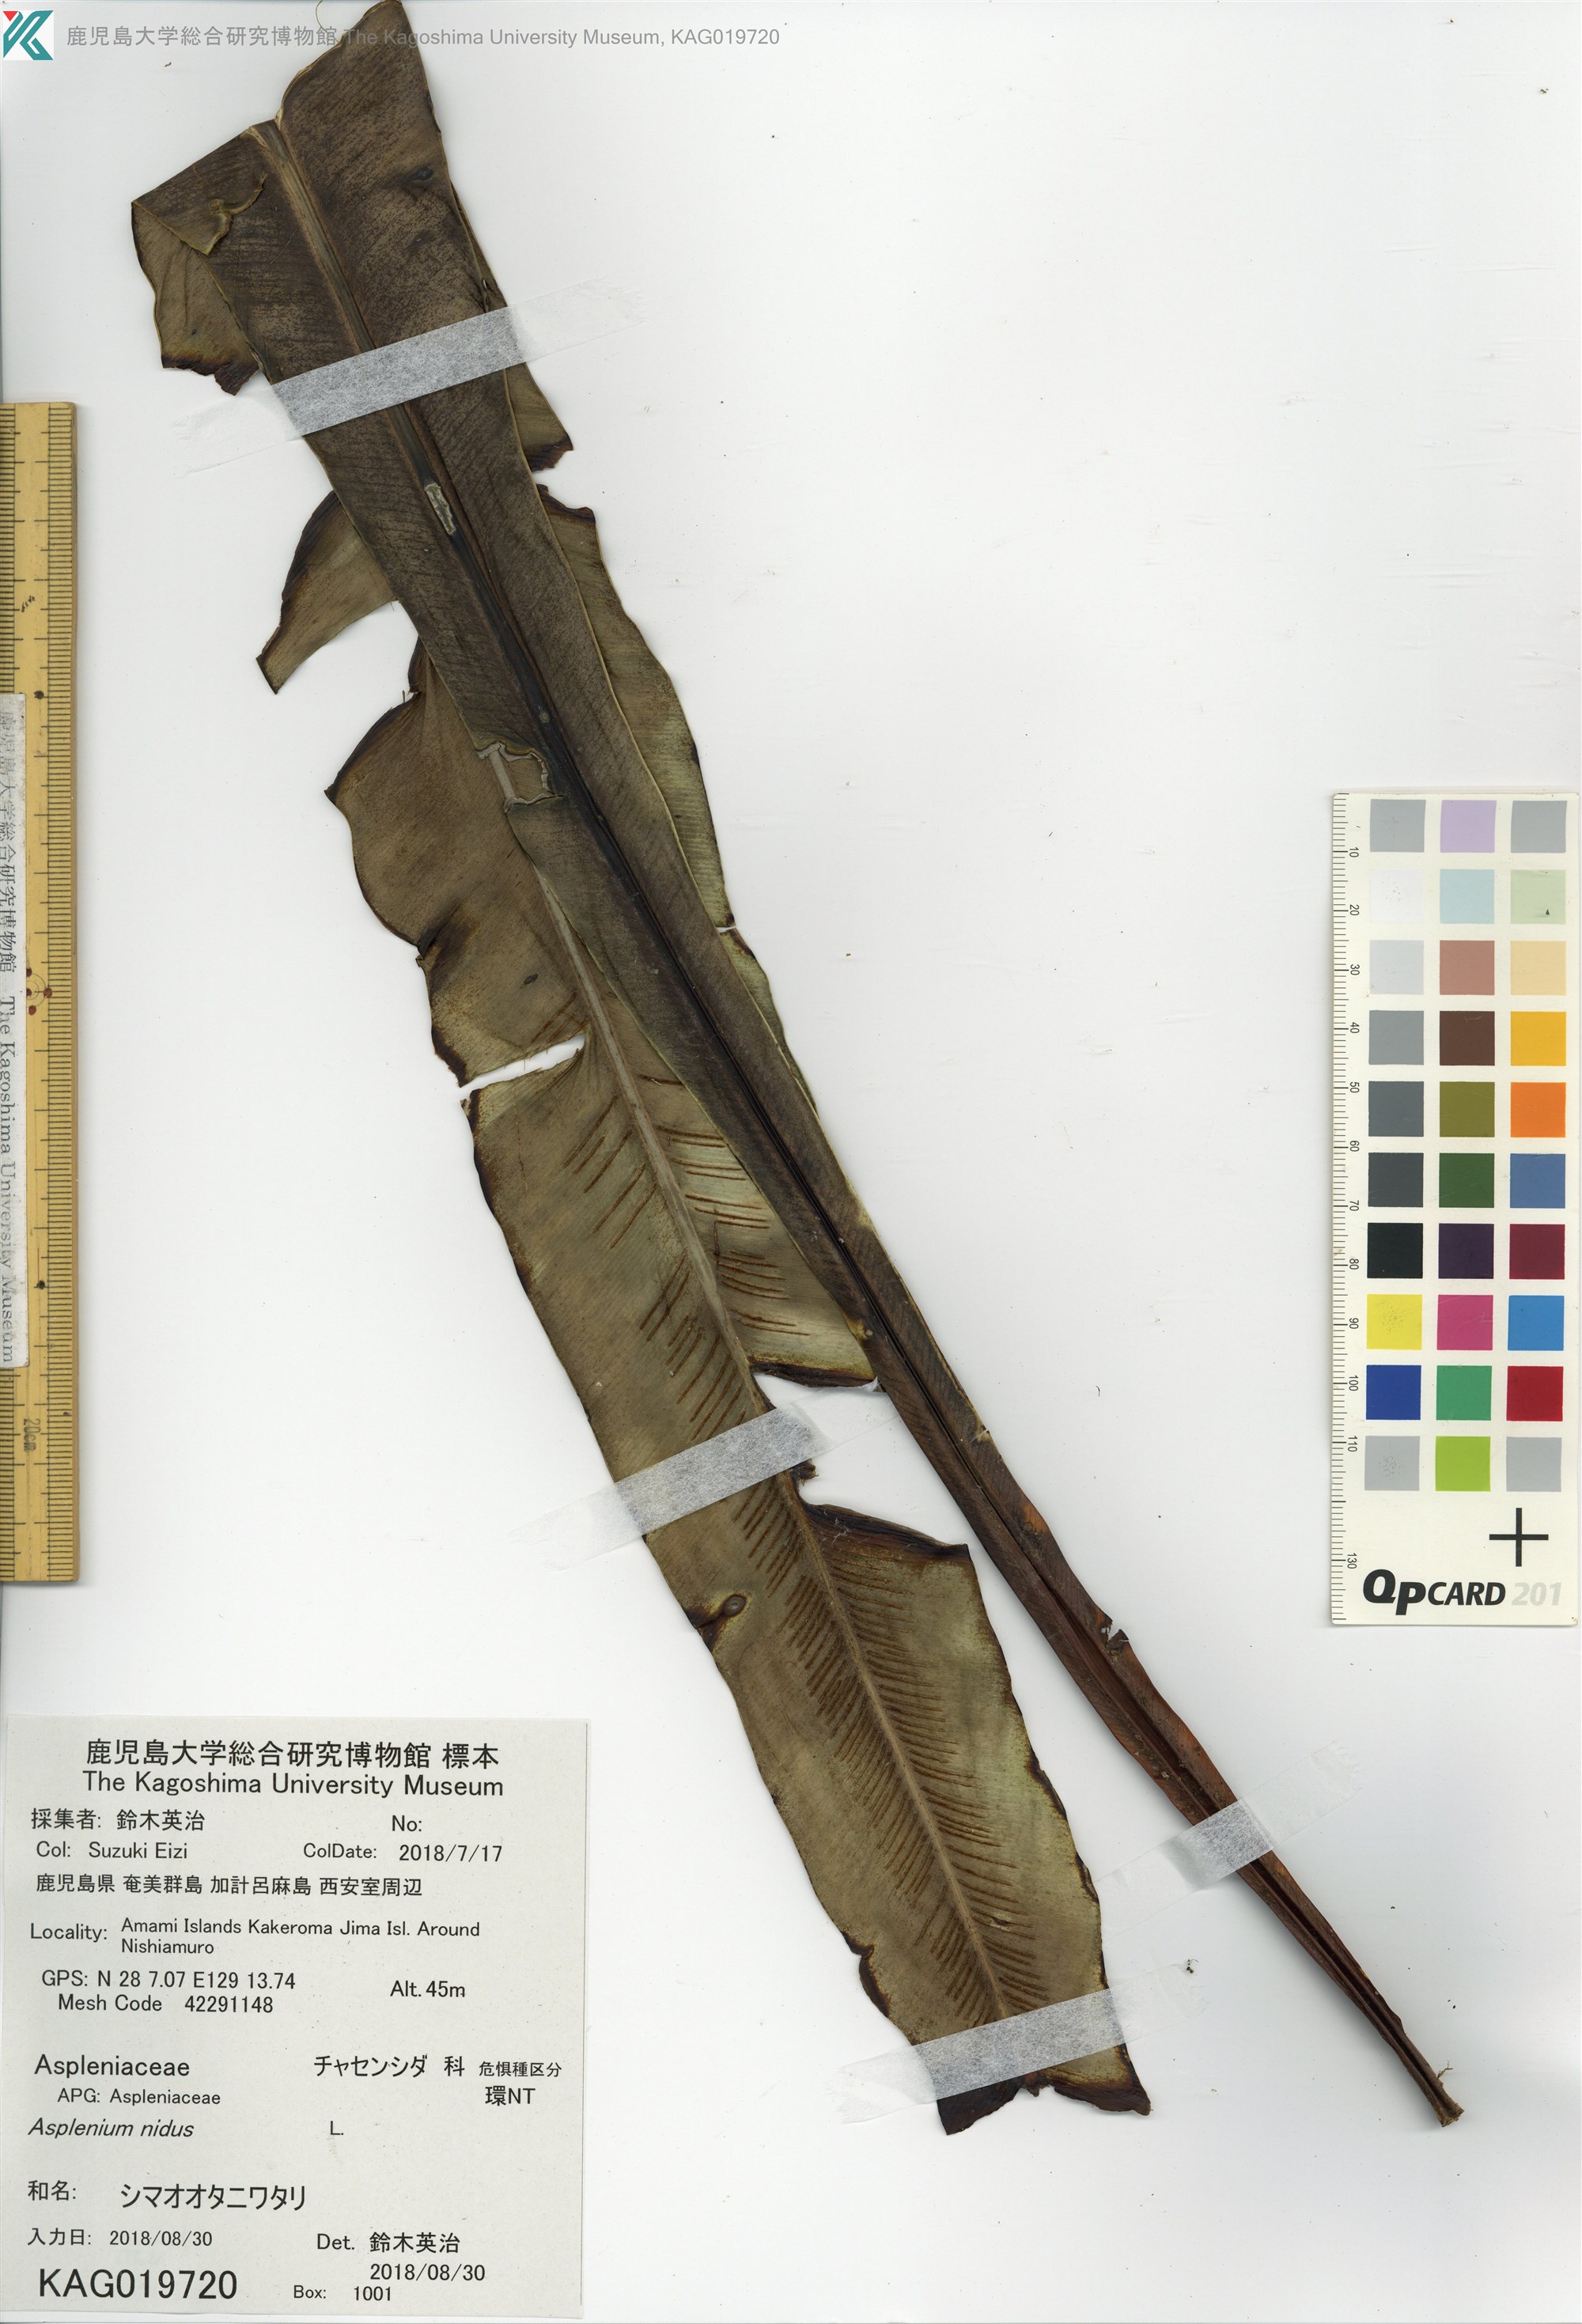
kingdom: Plantae
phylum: Tracheophyta
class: Polypodiopsida
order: Polypodiales
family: Aspleniaceae
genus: Asplenium
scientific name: Asplenium nidus
